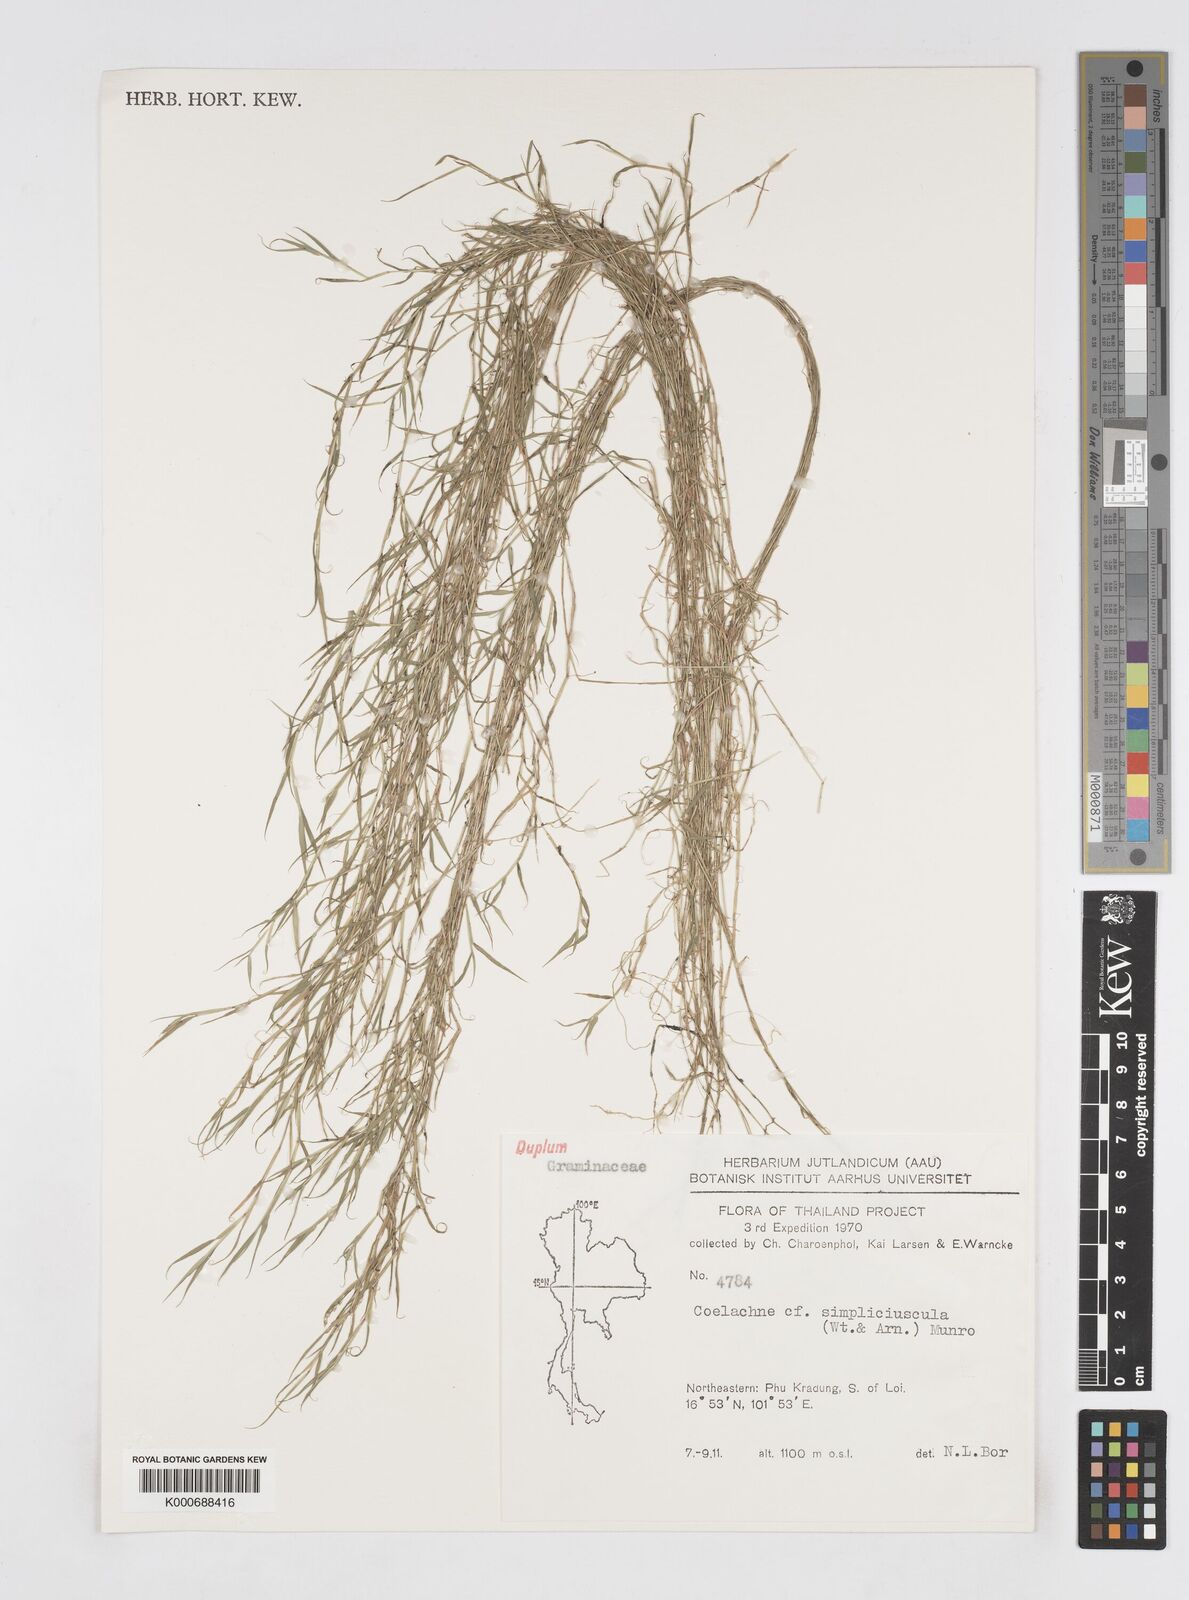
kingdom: Plantae
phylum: Tracheophyta
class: Liliopsida
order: Poales
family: Poaceae
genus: Coelachne
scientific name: Coelachne simpliciuscula
